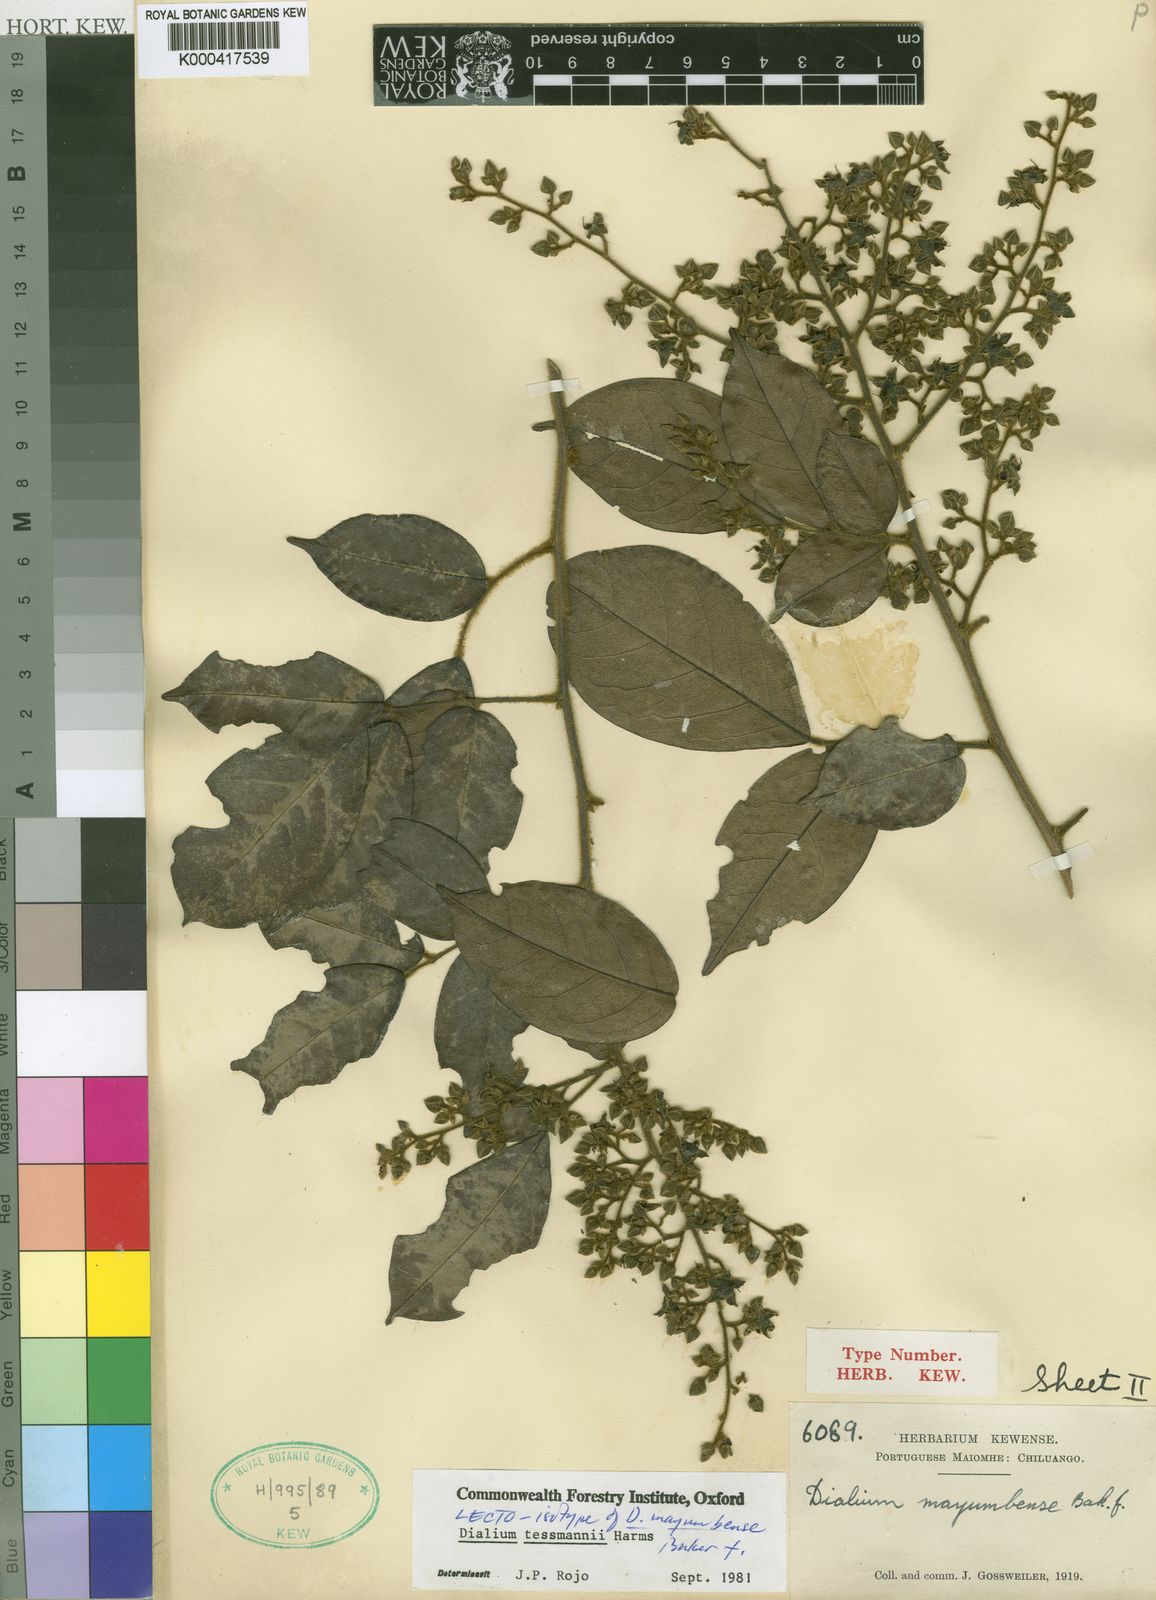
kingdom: Plantae
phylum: Tracheophyta
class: Magnoliopsida
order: Fabales
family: Fabaceae
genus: Dialium
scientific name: Dialium tessmannii
